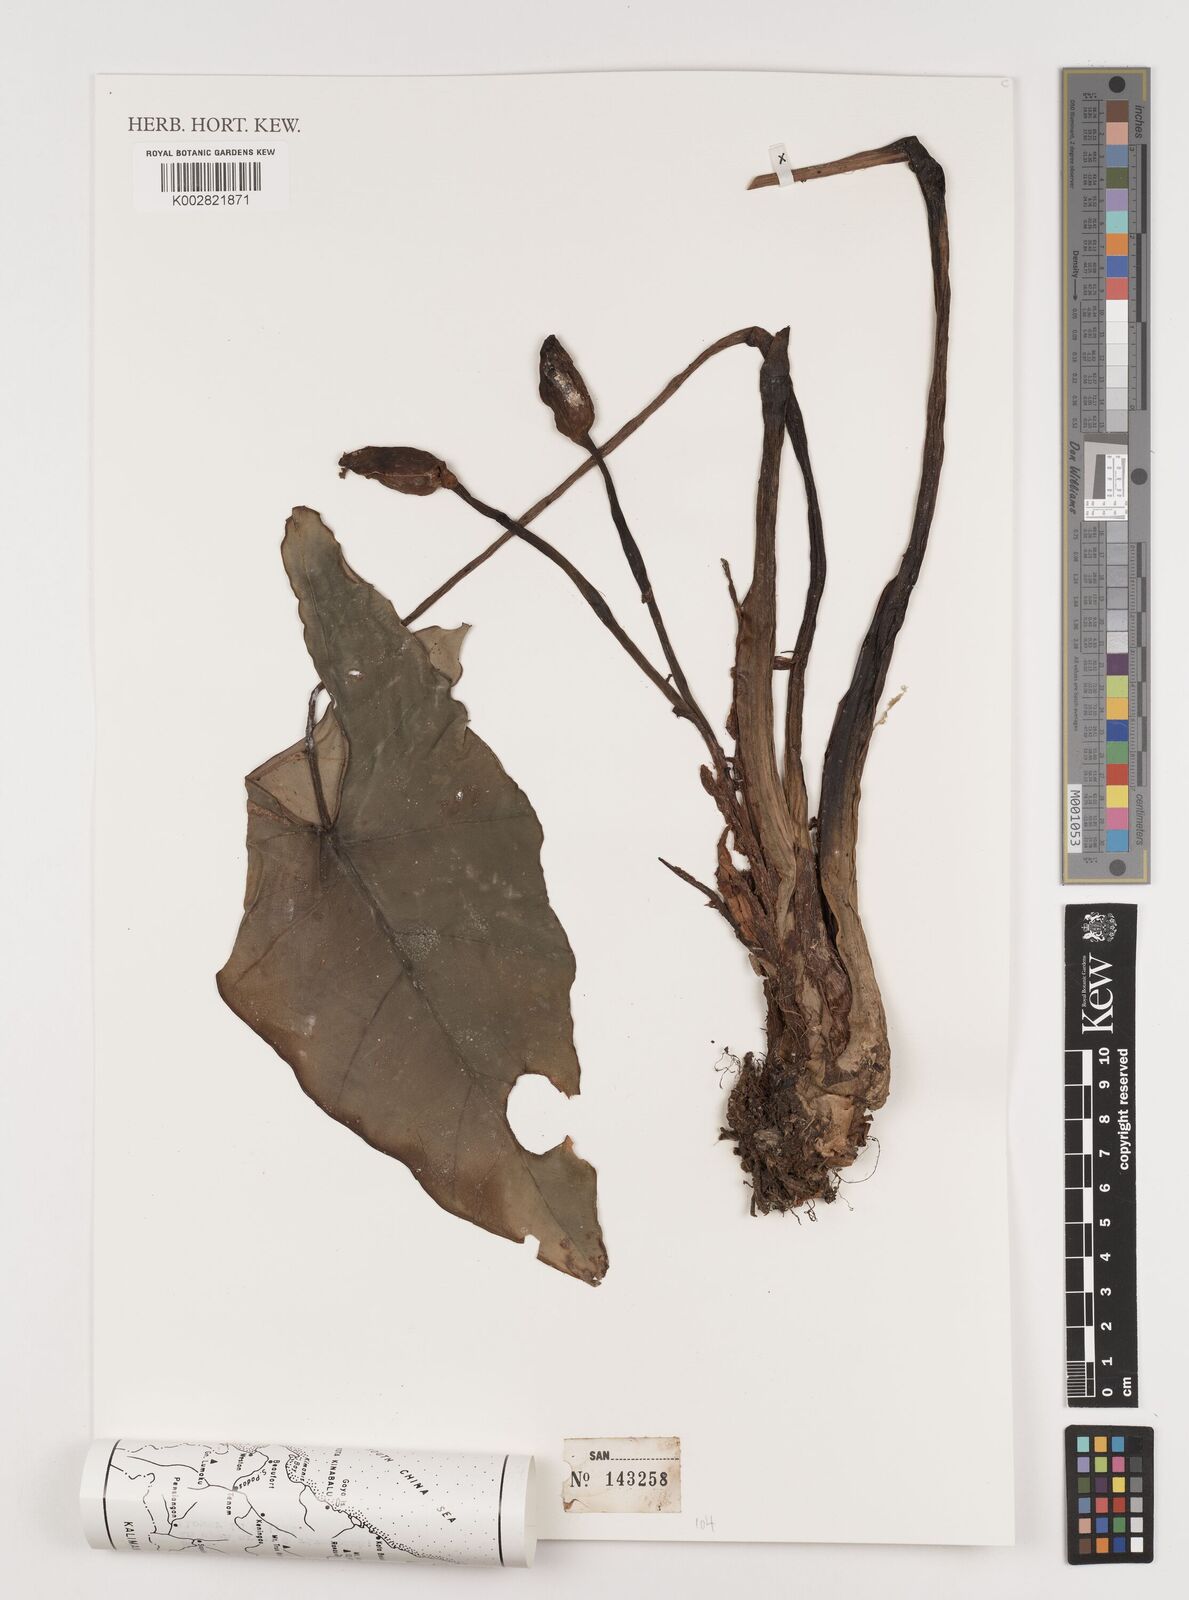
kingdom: Plantae
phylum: Tracheophyta
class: Liliopsida
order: Alismatales
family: Araceae
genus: Alocasia
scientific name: Alocasia
